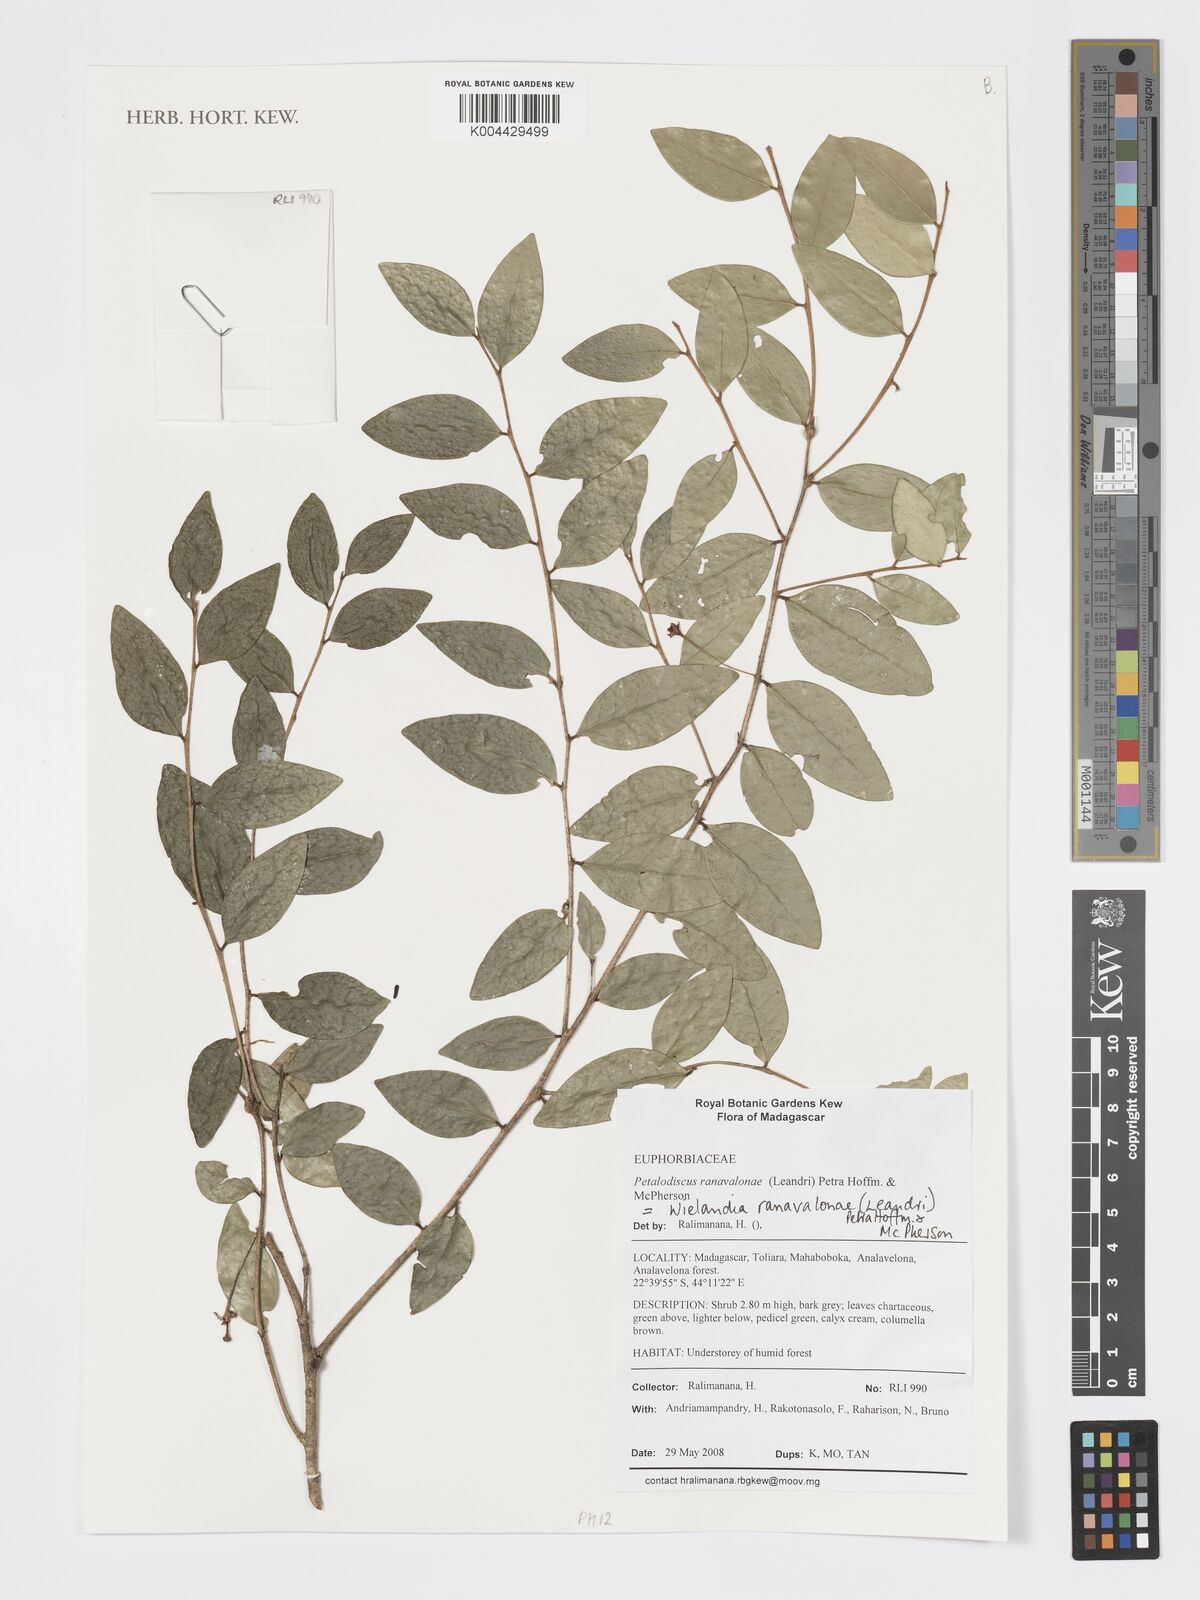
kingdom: Plantae
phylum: Tracheophyta
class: Magnoliopsida
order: Malpighiales
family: Phyllanthaceae
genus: Wielandia
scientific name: Wielandia ranavalonae
